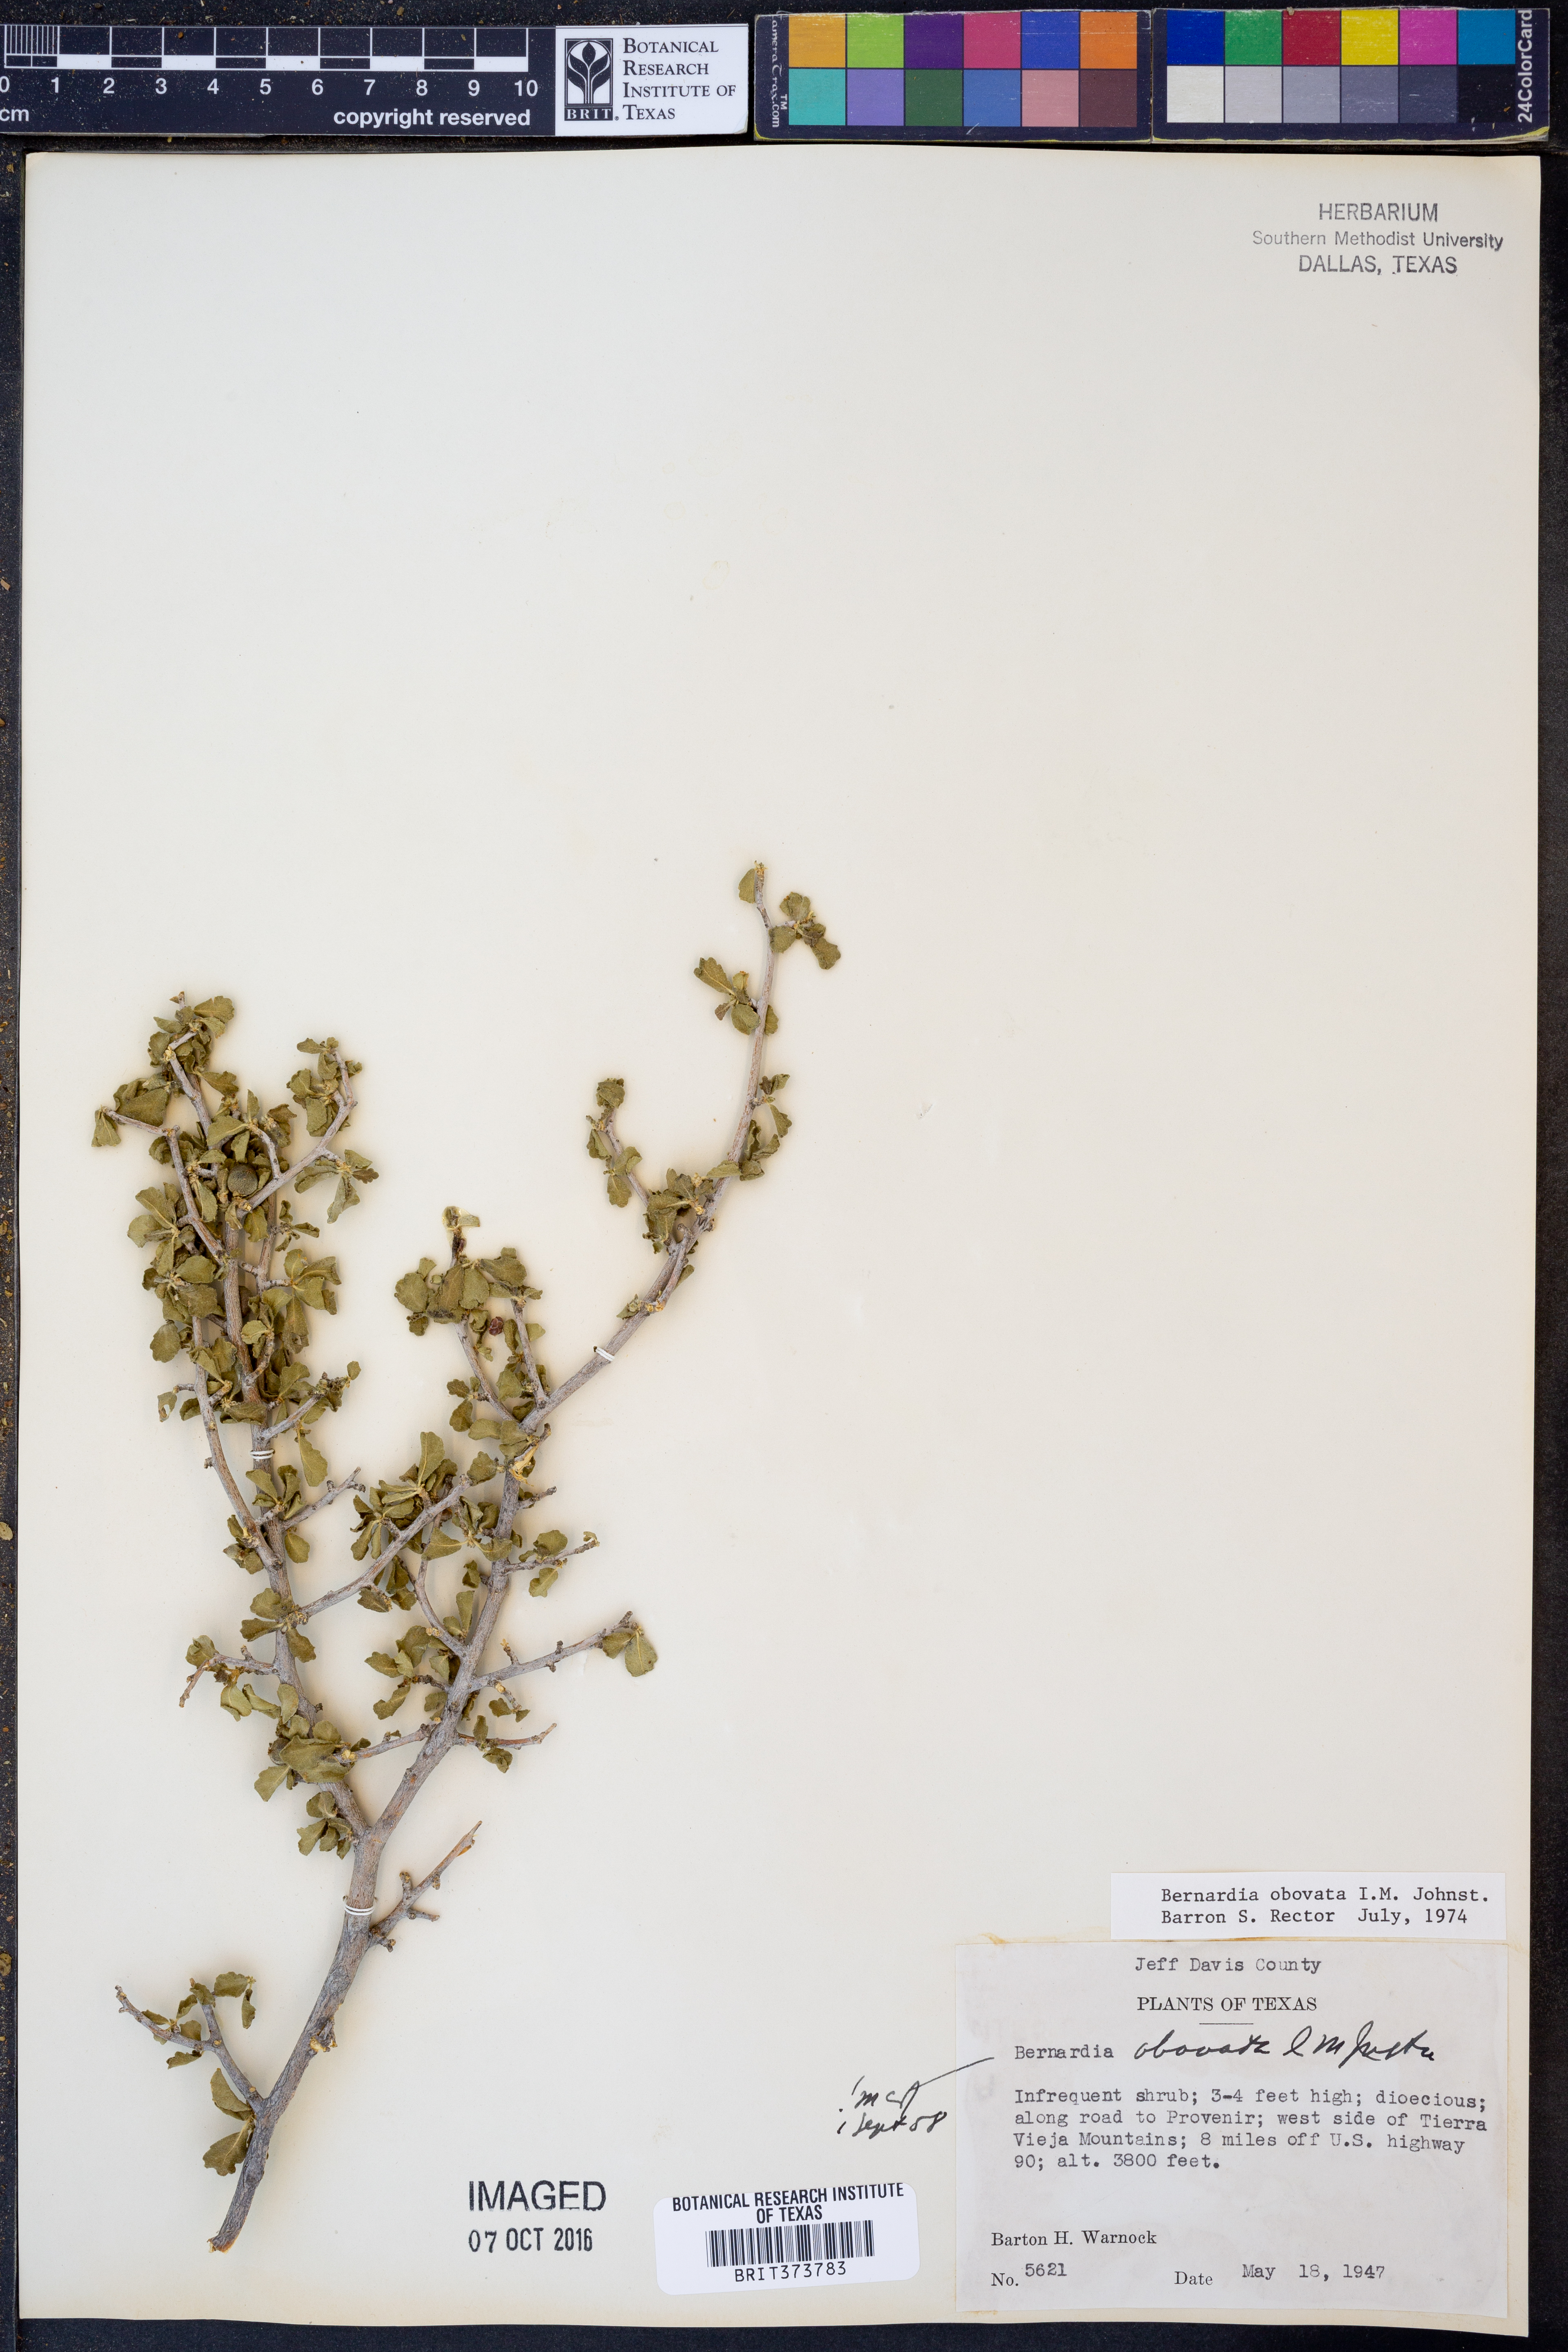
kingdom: Plantae
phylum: Tracheophyta
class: Magnoliopsida
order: Malpighiales
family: Euphorbiaceae
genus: Bernardia
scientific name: Bernardia obovata
